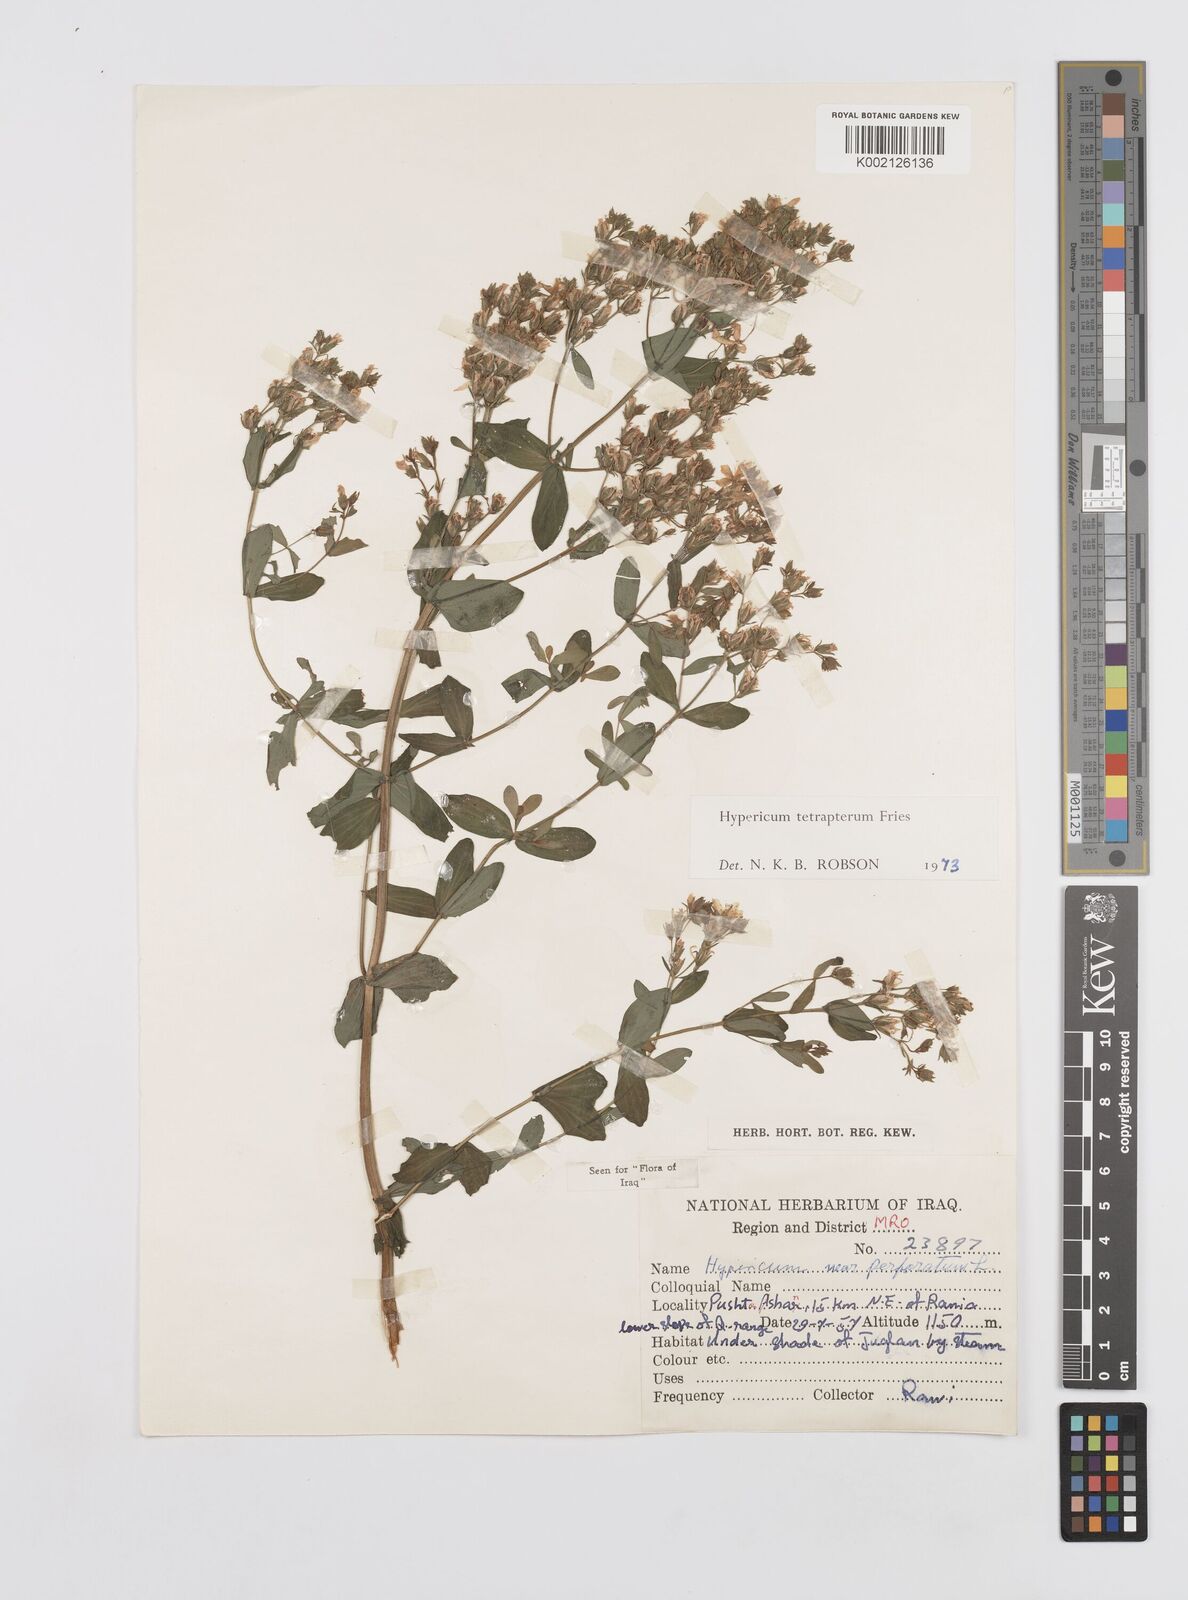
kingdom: Plantae
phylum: Tracheophyta
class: Magnoliopsida
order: Malpighiales
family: Hypericaceae
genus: Hypericum
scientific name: Hypericum tetrapterum
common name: Square-stalked st. john's-wort
